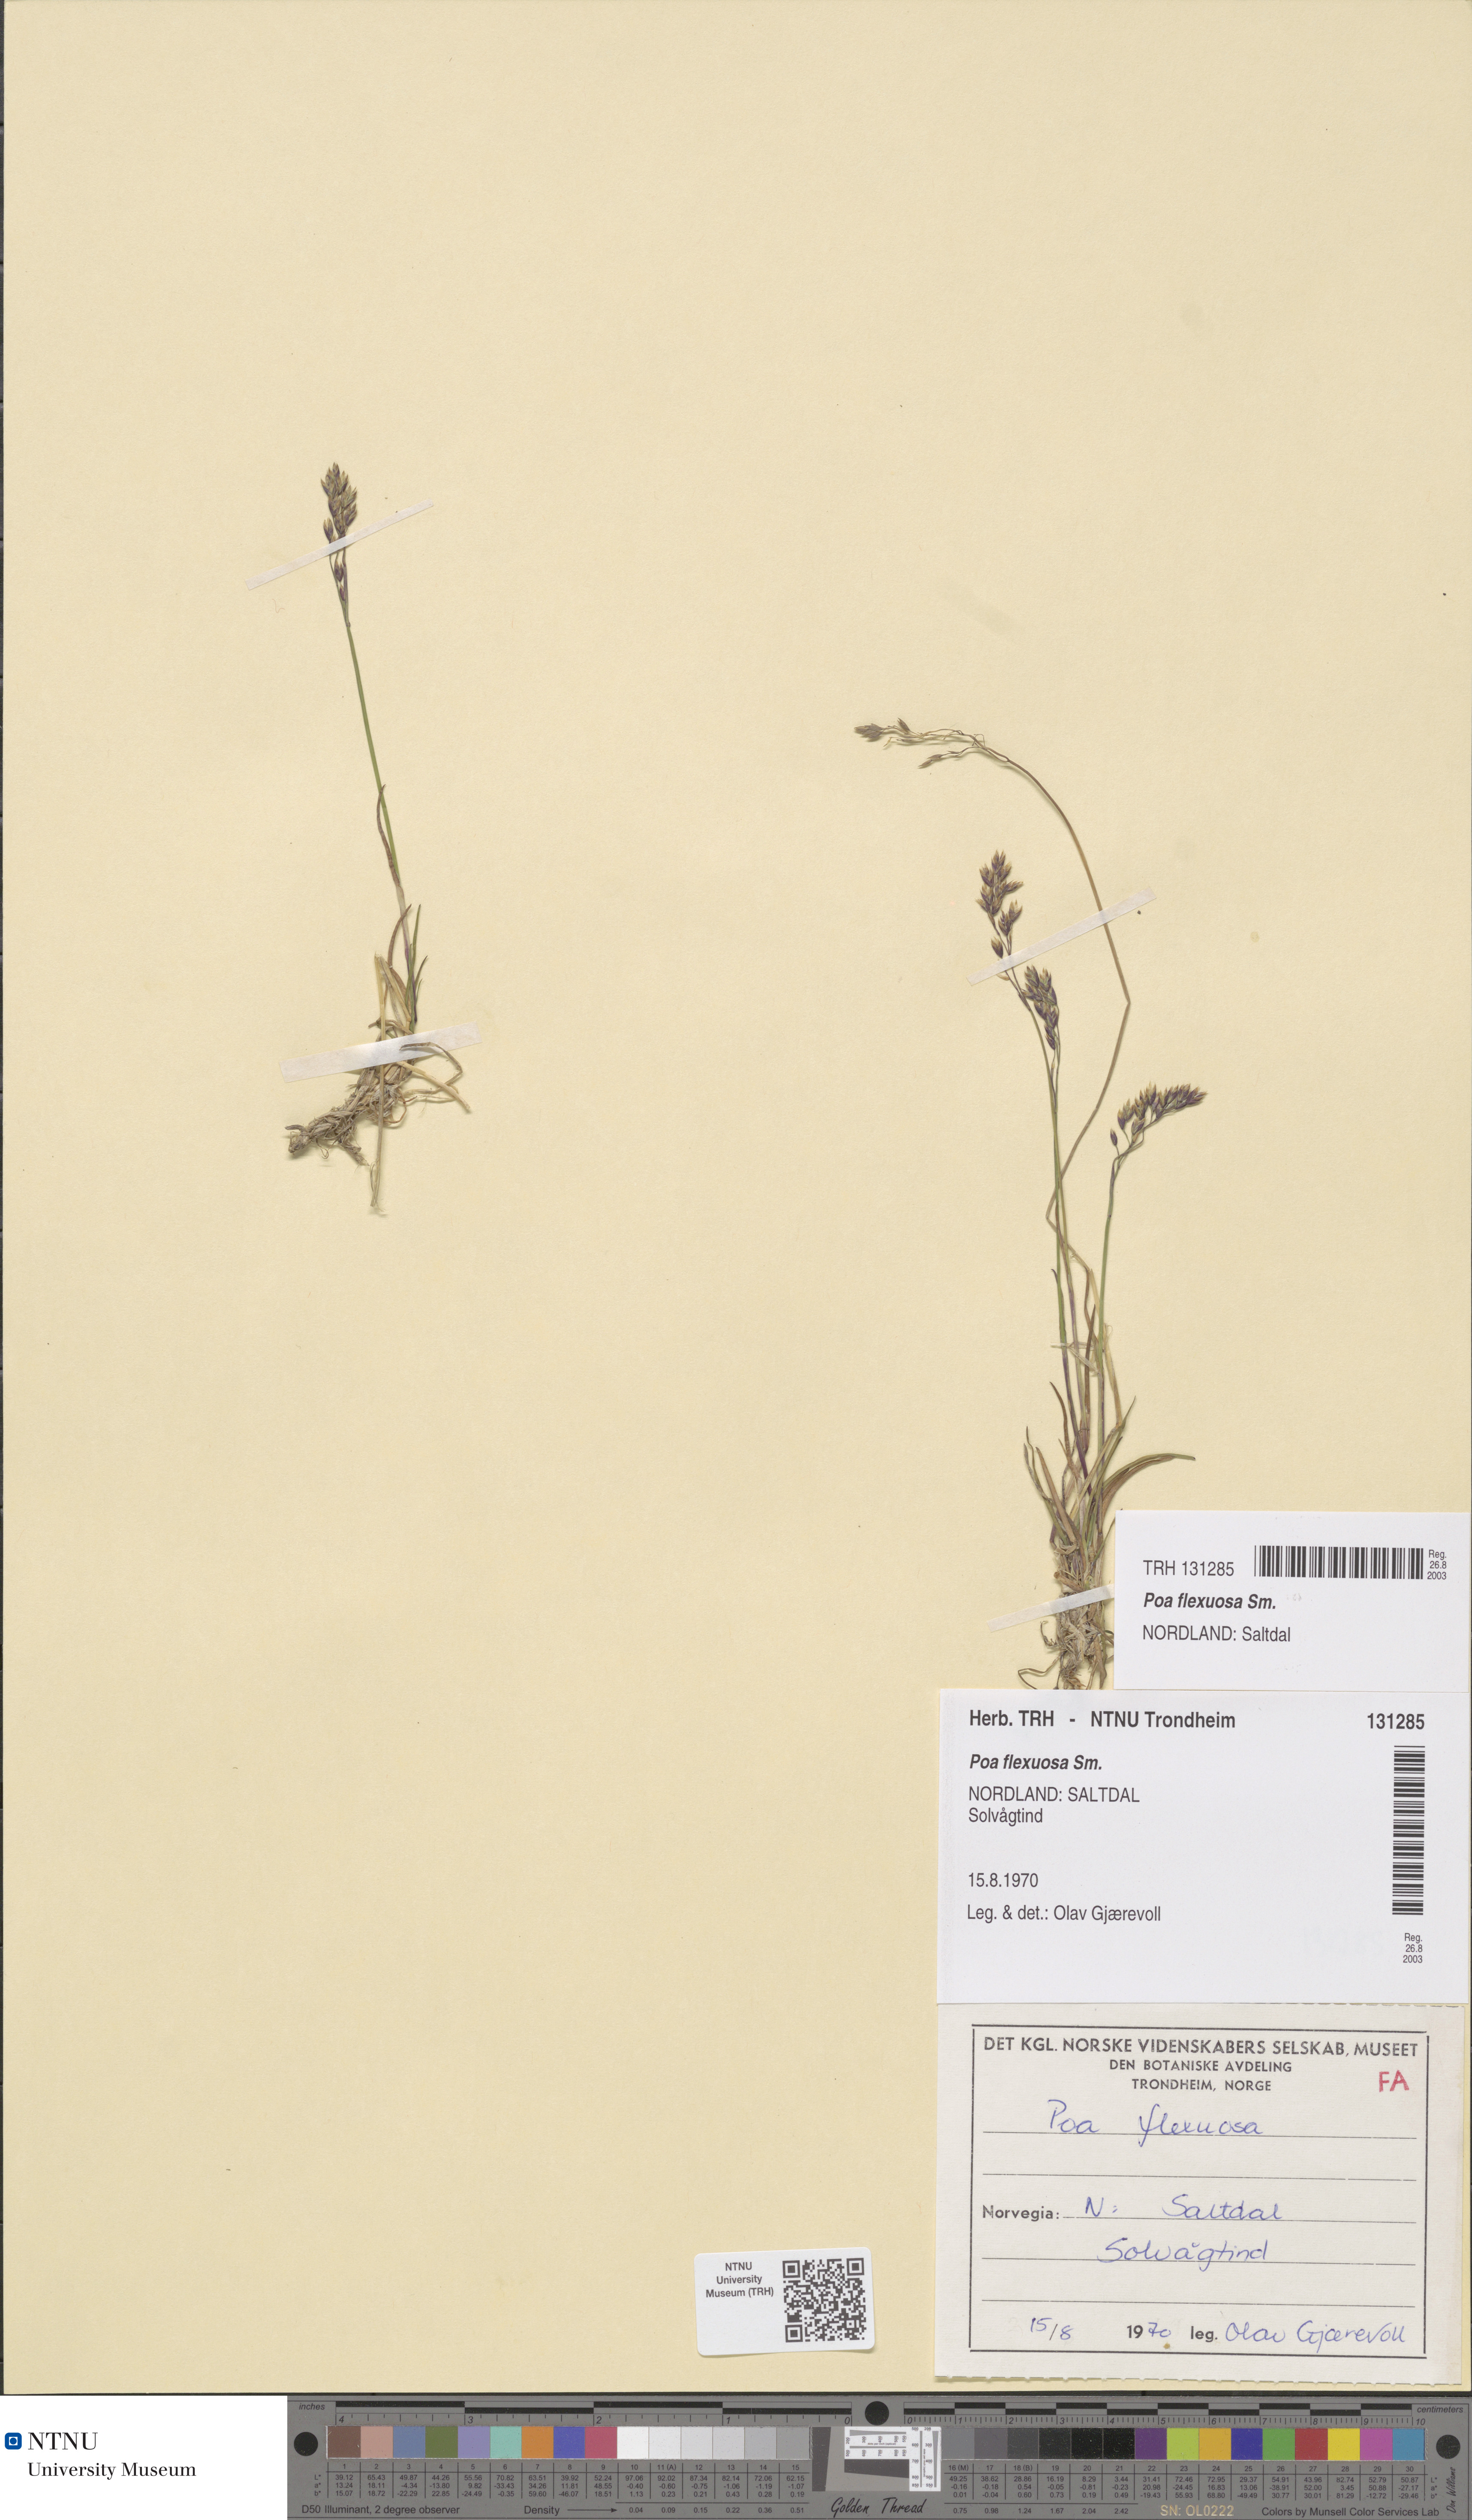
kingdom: Plantae
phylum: Tracheophyta
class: Liliopsida
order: Poales
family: Poaceae
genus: Poa
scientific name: Poa flexuosa
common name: Wavy meadow-grass
